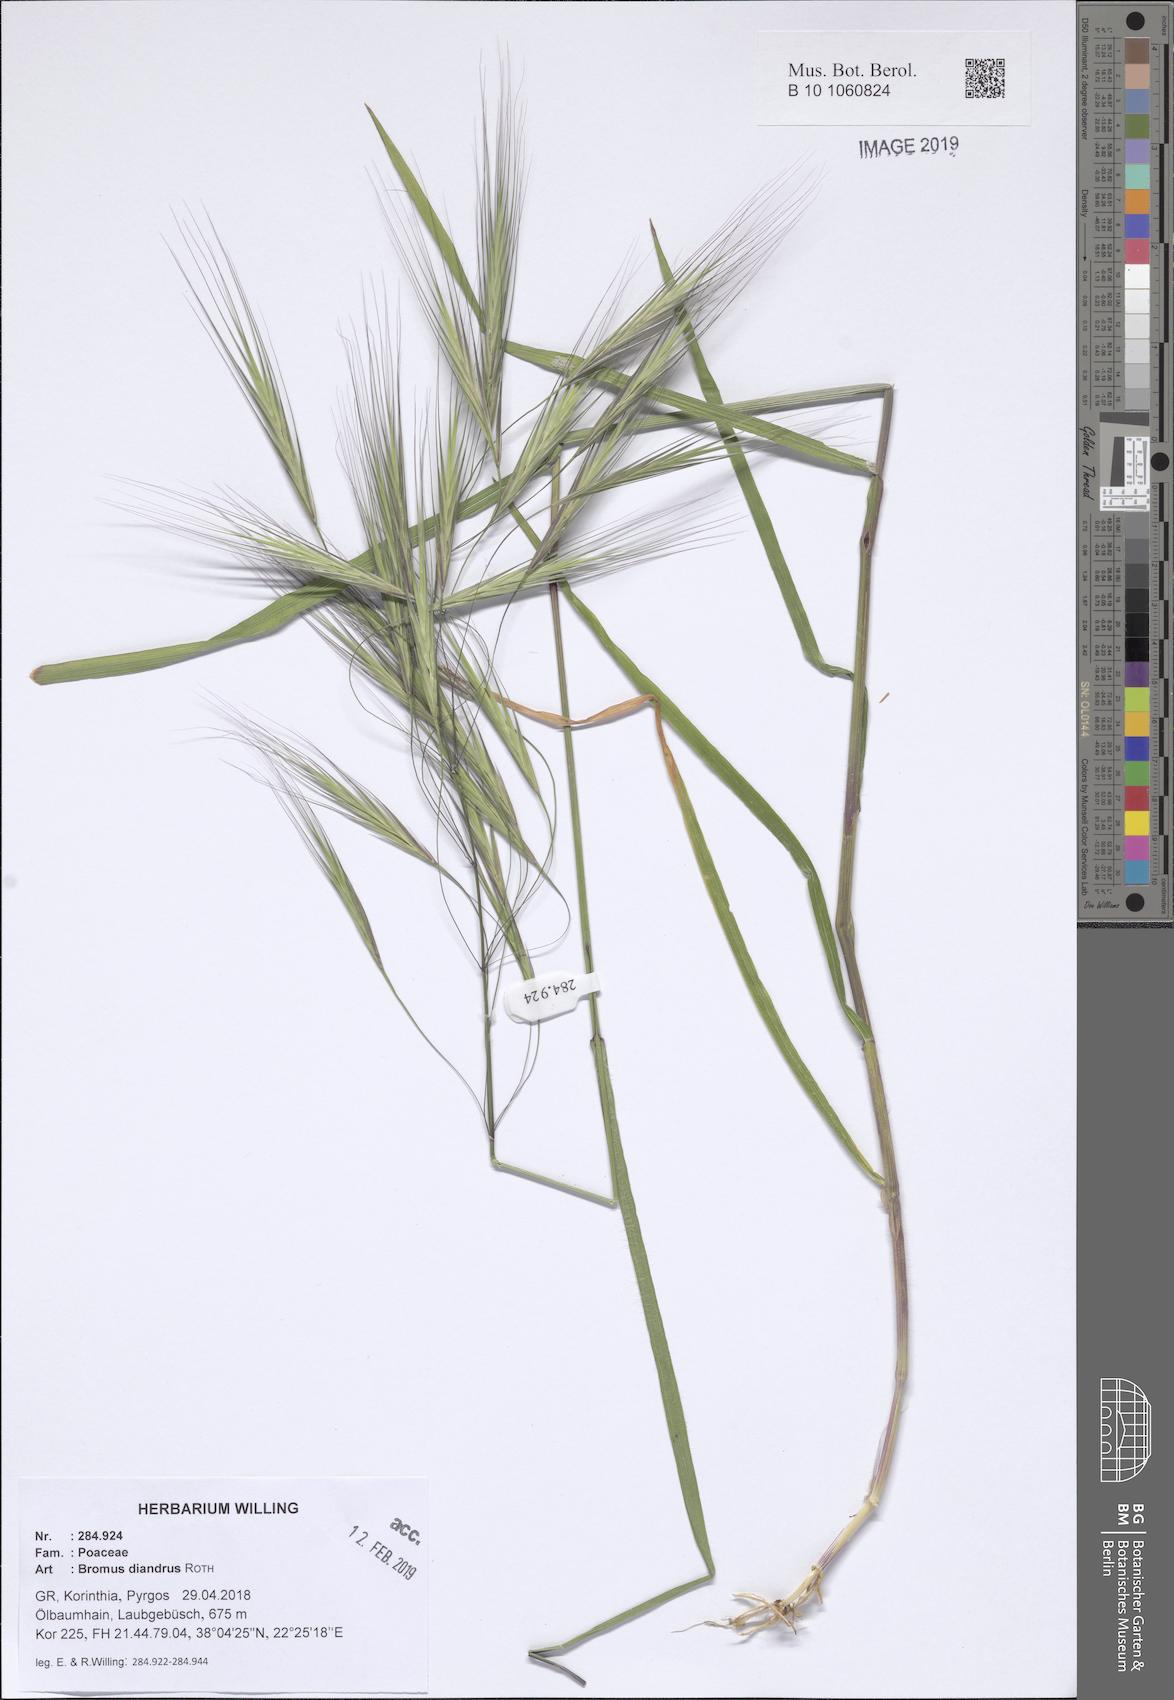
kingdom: Plantae
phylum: Tracheophyta
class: Liliopsida
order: Poales
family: Poaceae
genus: Bromus
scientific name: Bromus diandrus
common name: Ripgut brome
